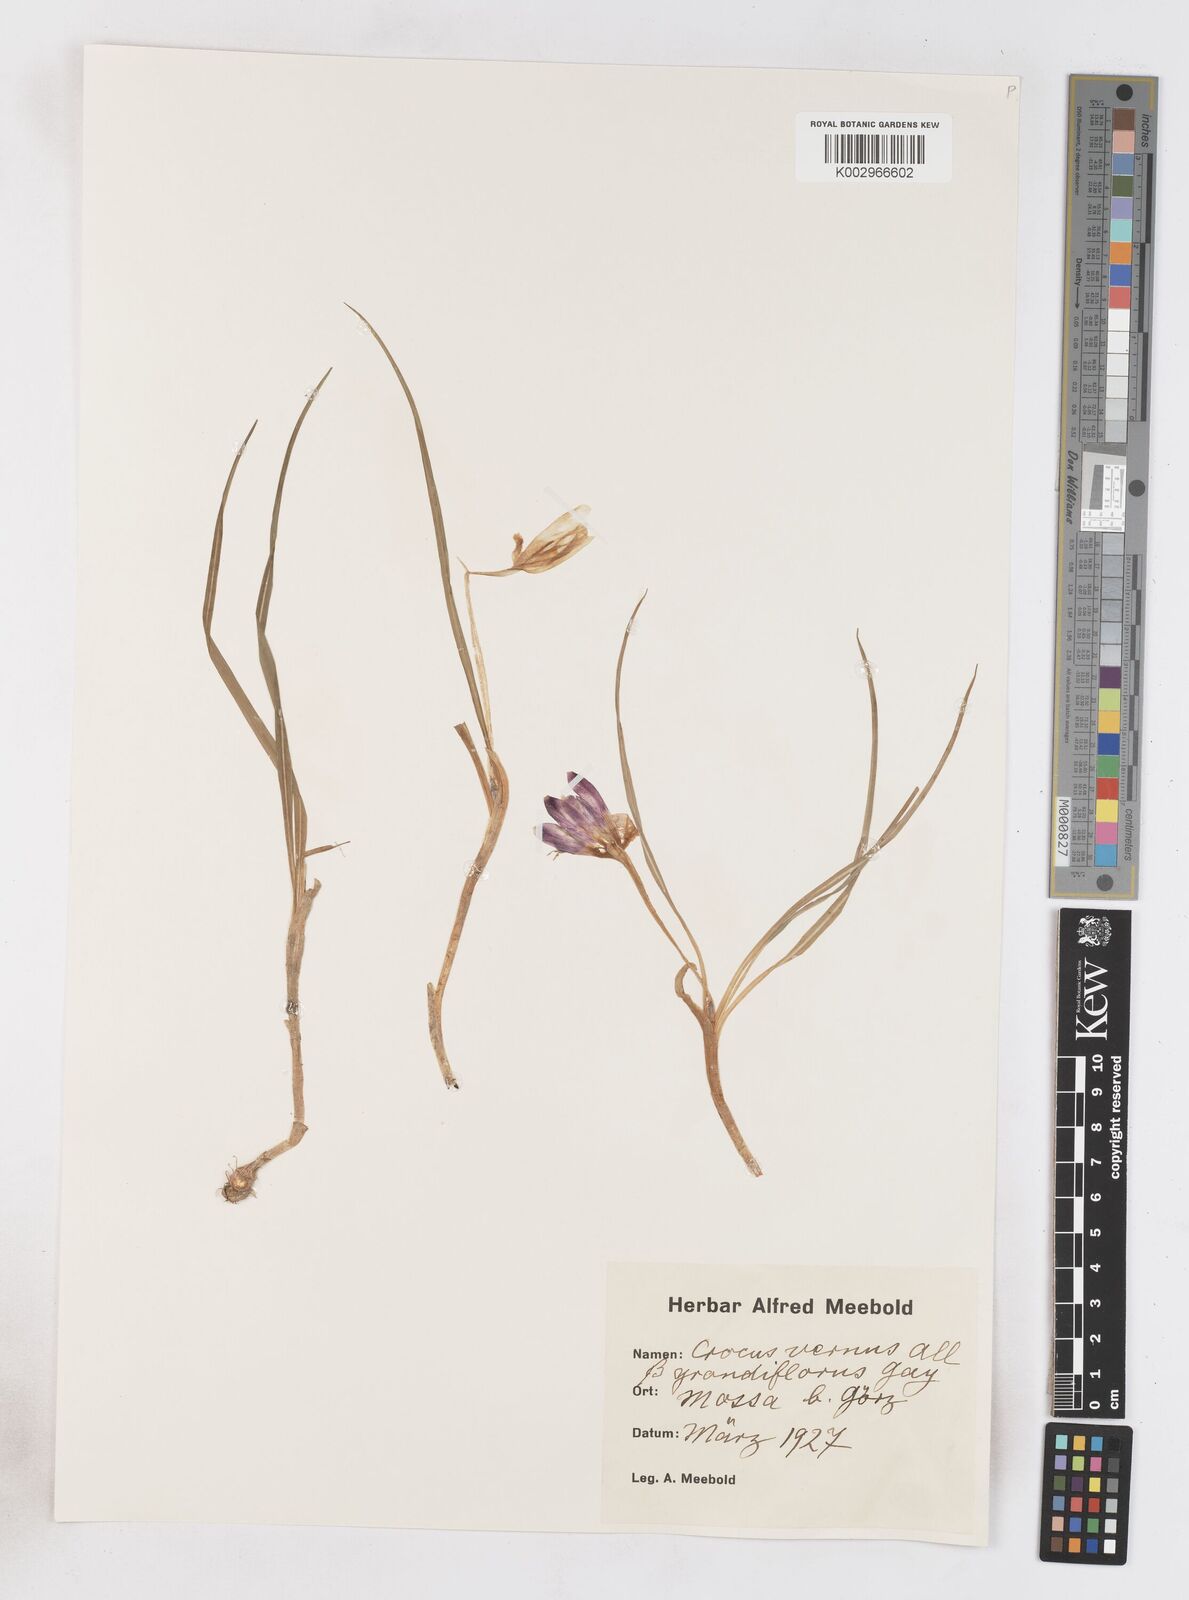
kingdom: Plantae
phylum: Tracheophyta
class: Liliopsida
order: Asparagales
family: Iridaceae
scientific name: Iridaceae
